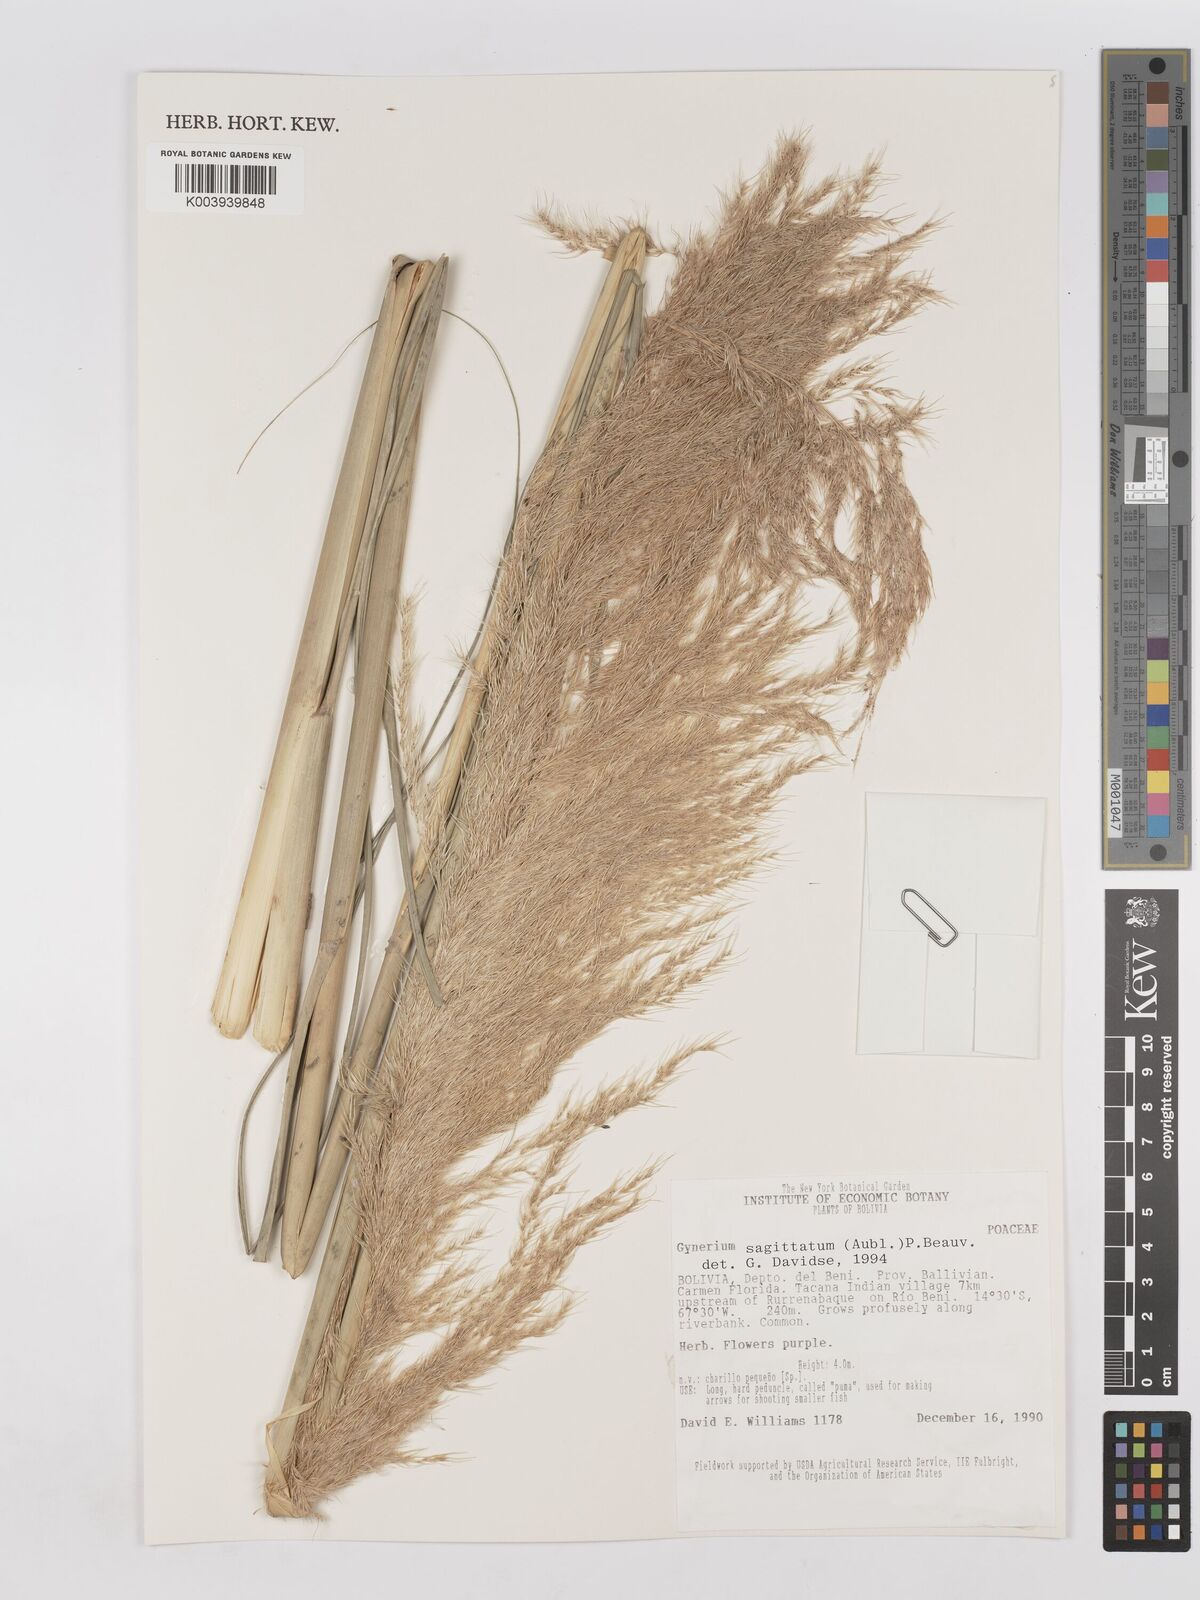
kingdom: Plantae
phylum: Tracheophyta
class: Liliopsida
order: Poales
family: Poaceae
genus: Gynerium
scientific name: Gynerium sagittatum
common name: Wild cane
